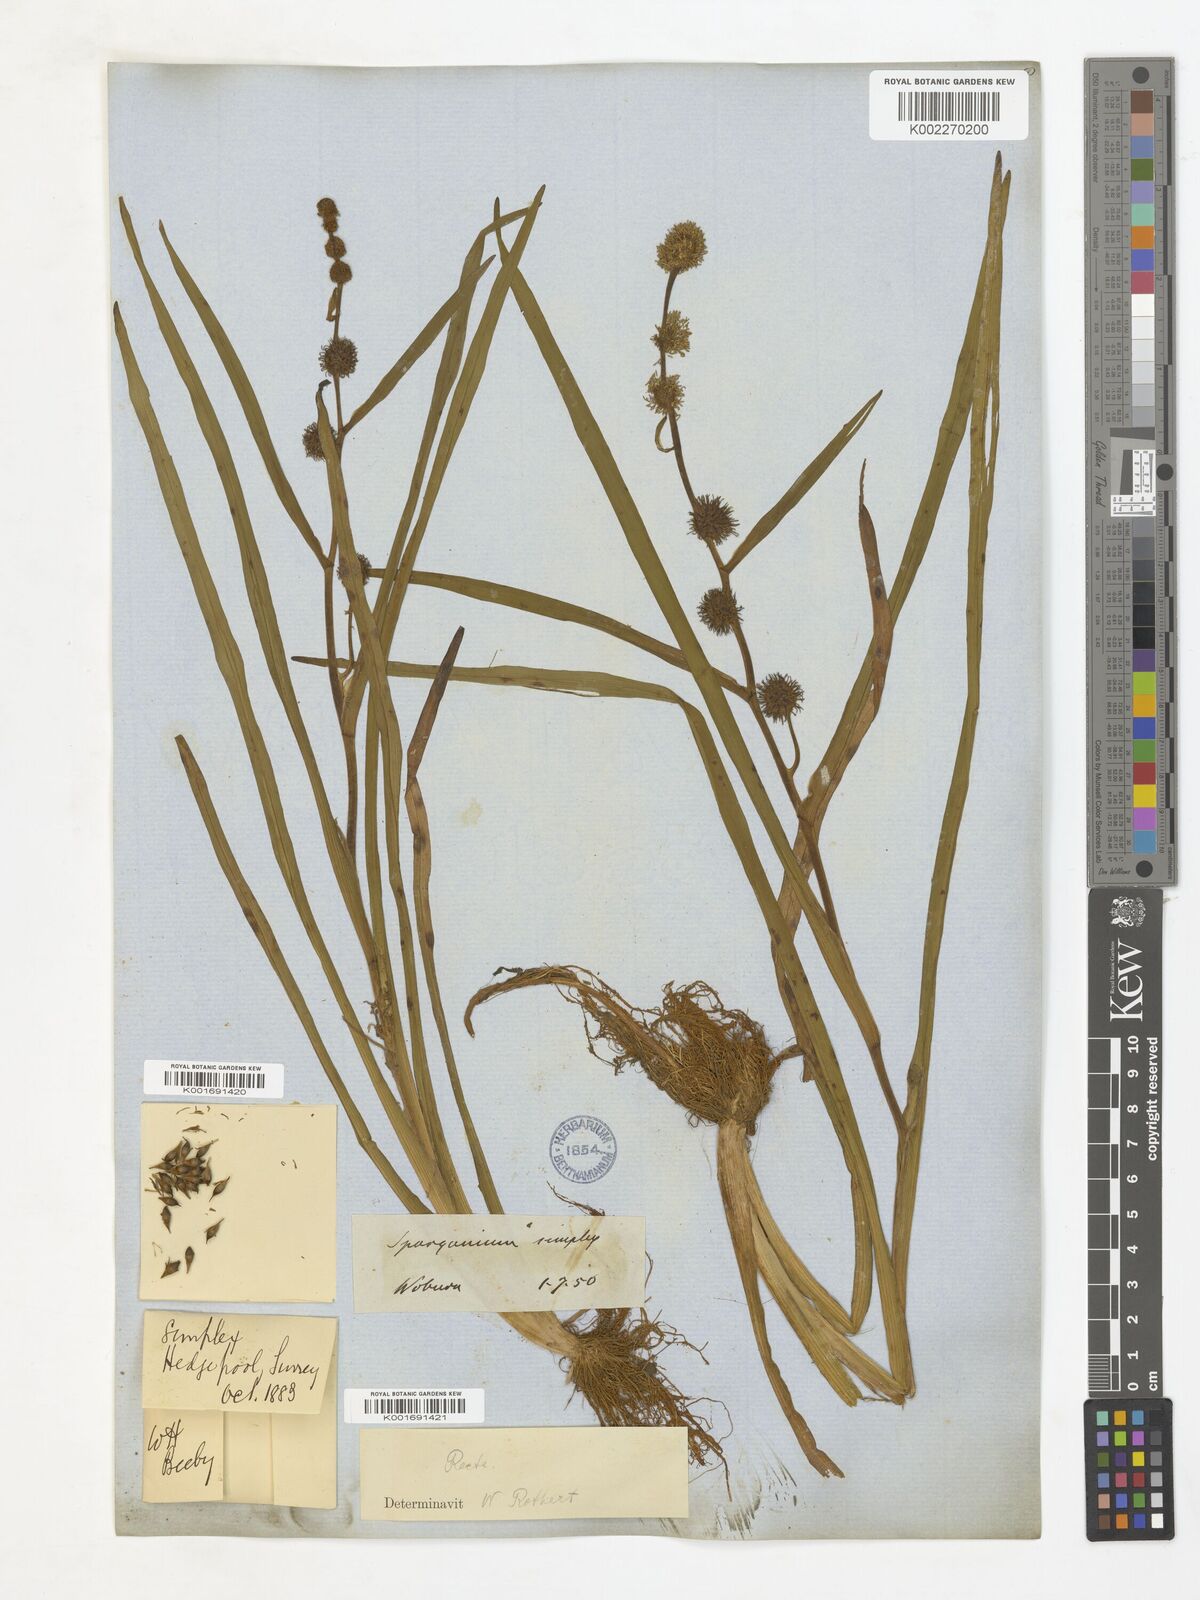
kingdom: Plantae
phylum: Tracheophyta
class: Liliopsida
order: Poales
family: Typhaceae
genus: Sparganium
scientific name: Sparganium angustifolium
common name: Floating bur-reed
